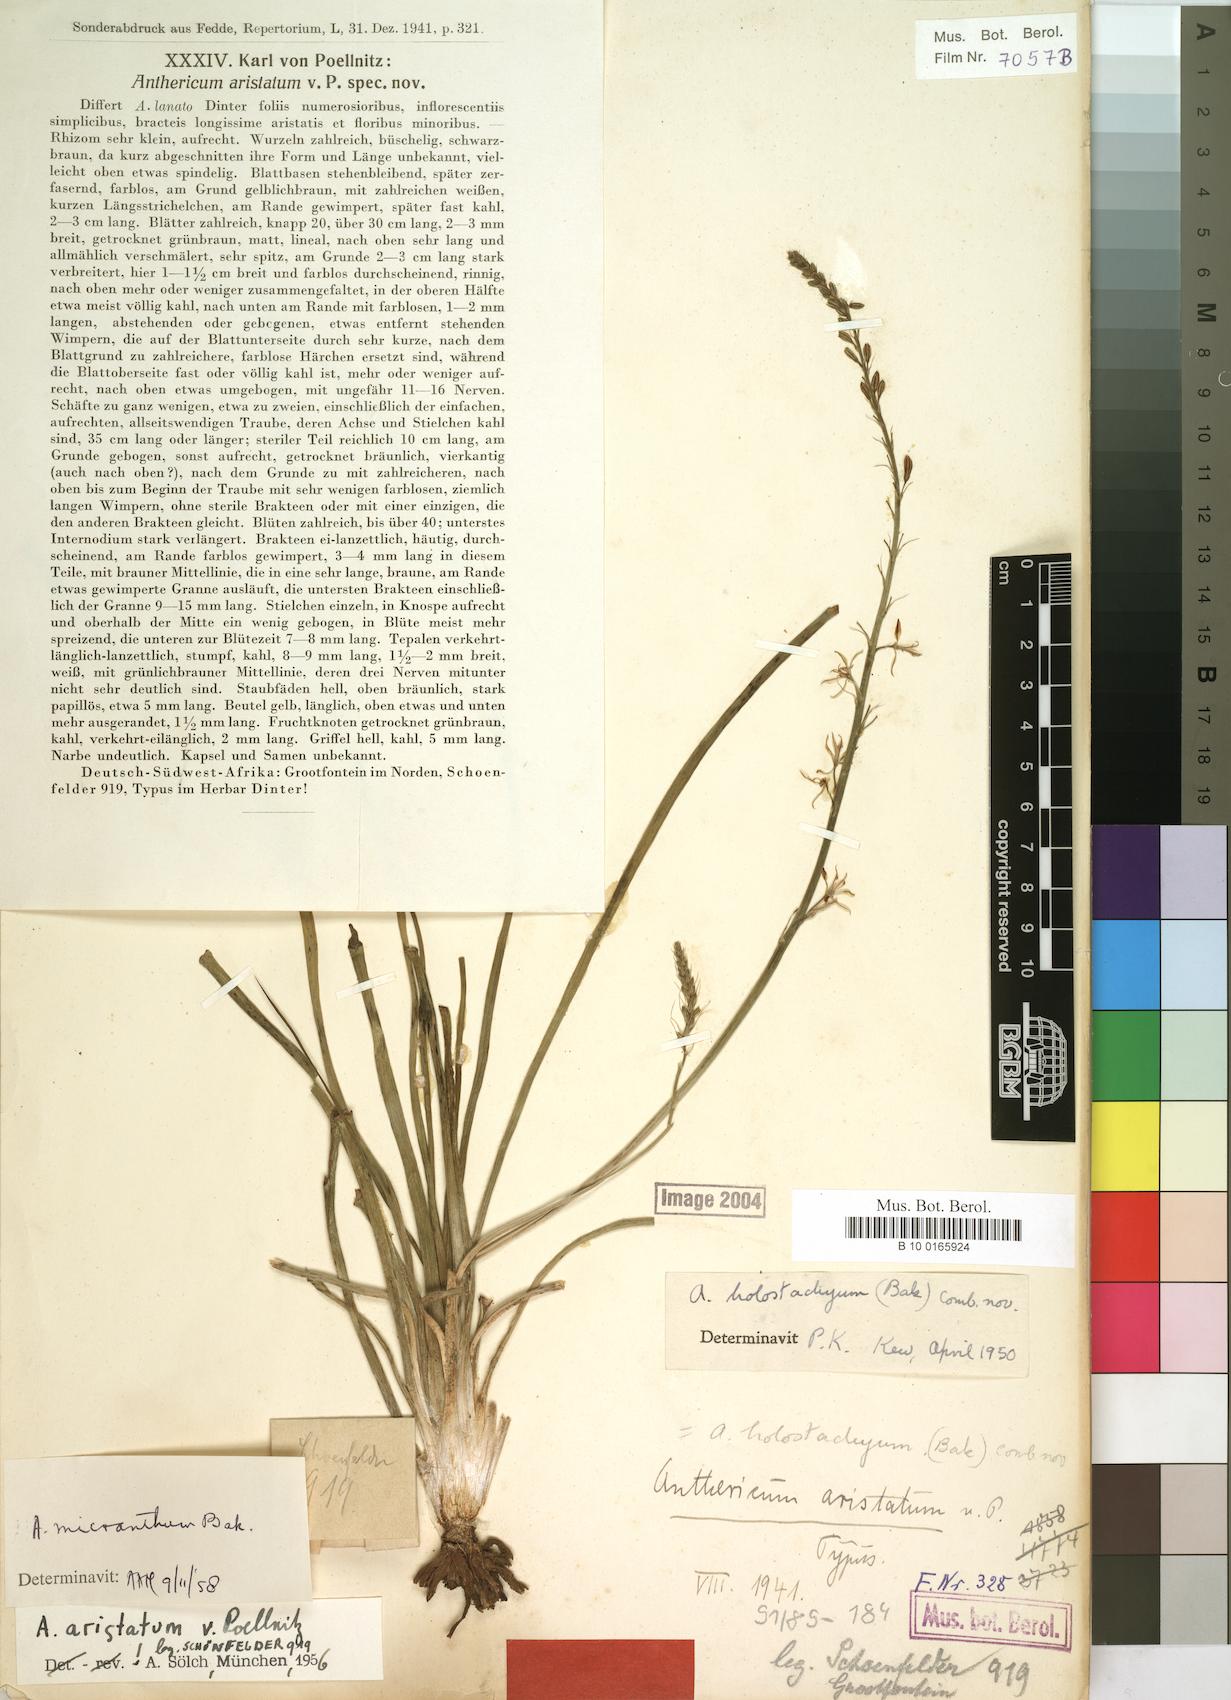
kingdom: Plantae
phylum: Tracheophyta
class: Liliopsida
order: Asparagales
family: Asphodelaceae
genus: Trachyandra
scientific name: Trachyandra saltii
